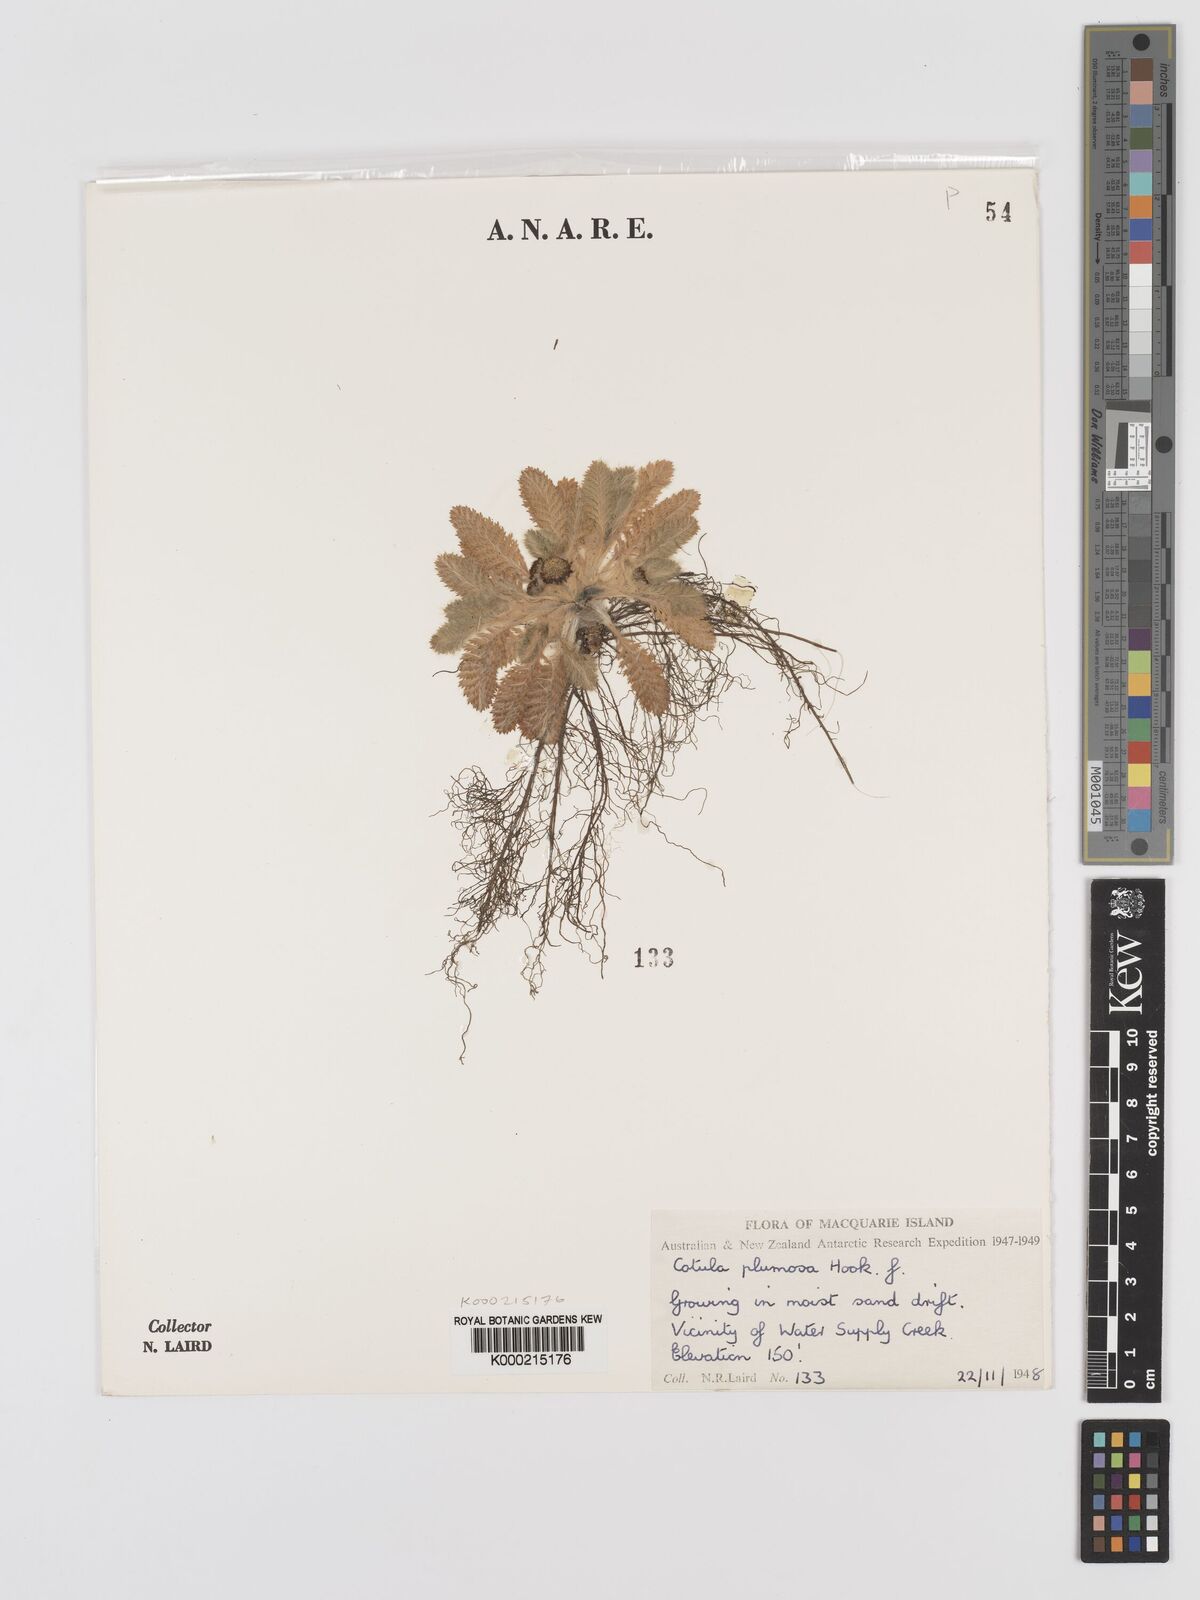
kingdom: Plantae
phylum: Tracheophyta
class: Magnoliopsida
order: Asterales
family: Asteraceae
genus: Leptinella
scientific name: Leptinella
